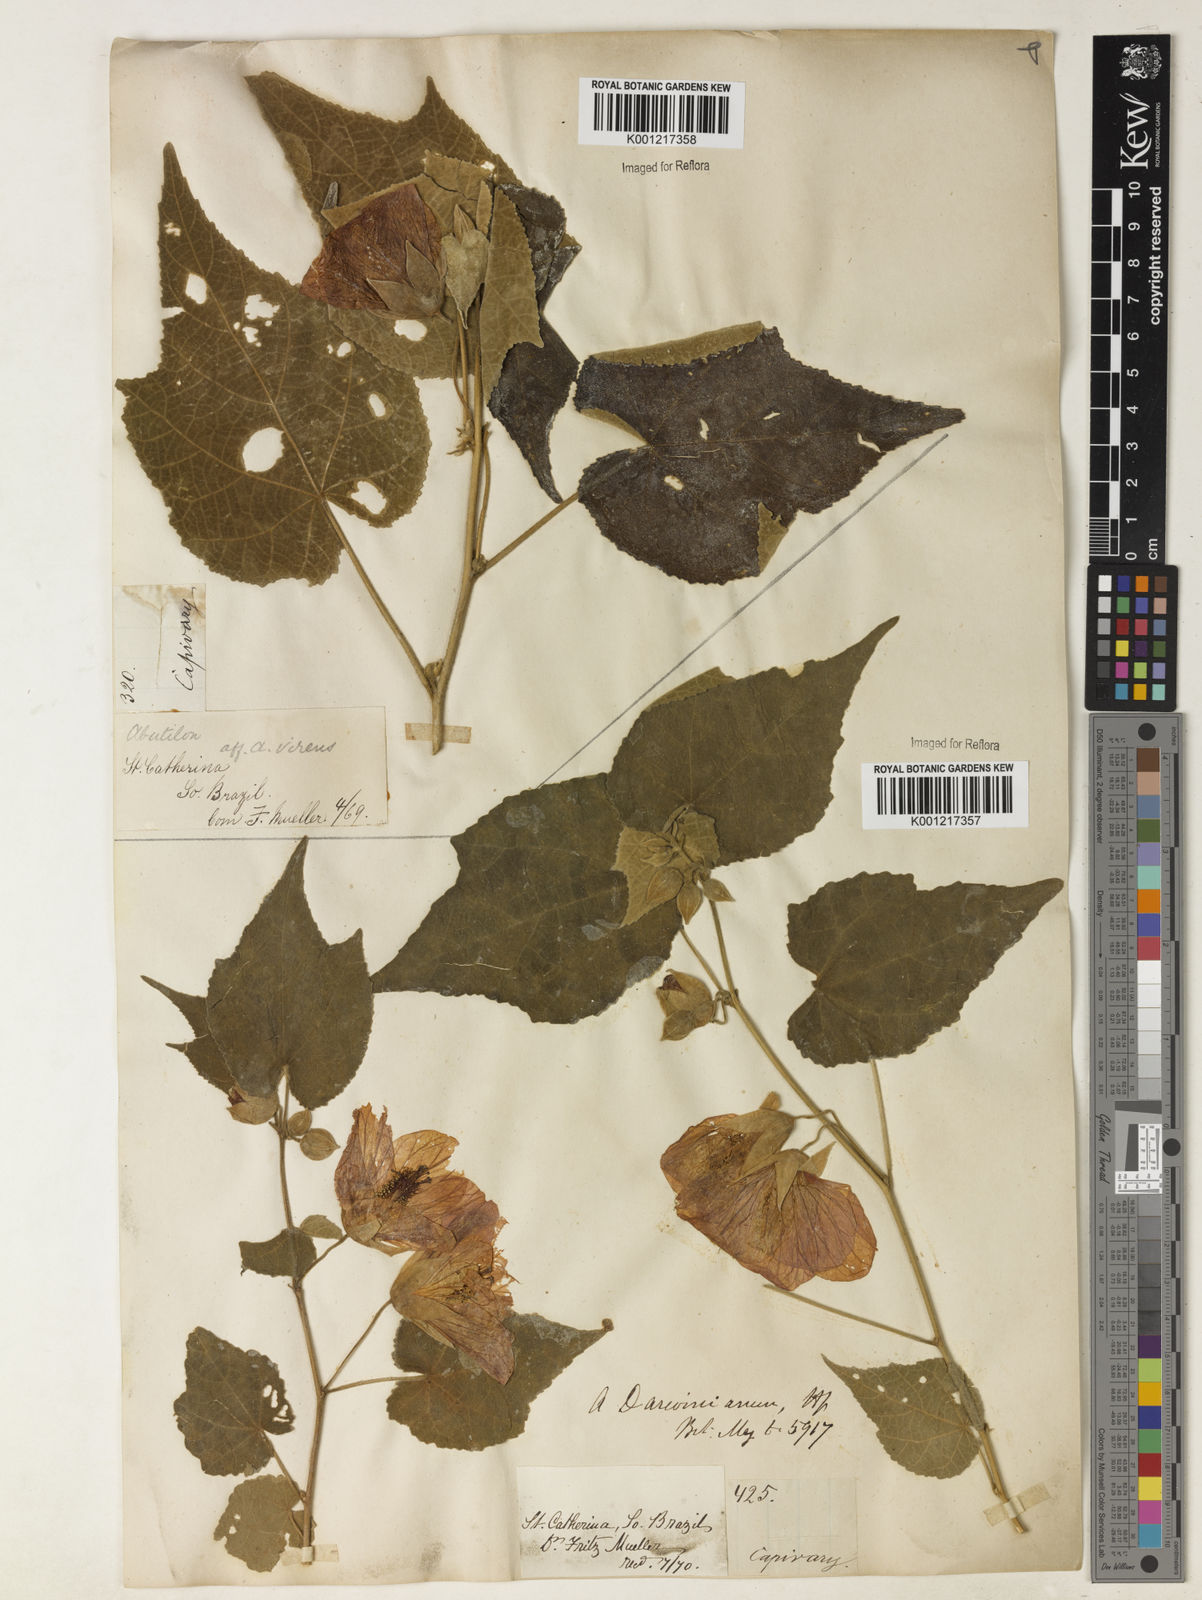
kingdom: Plantae
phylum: Tracheophyta
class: Magnoliopsida
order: Malvales
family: Malvaceae
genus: Callianthe
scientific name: Callianthe darwinii
